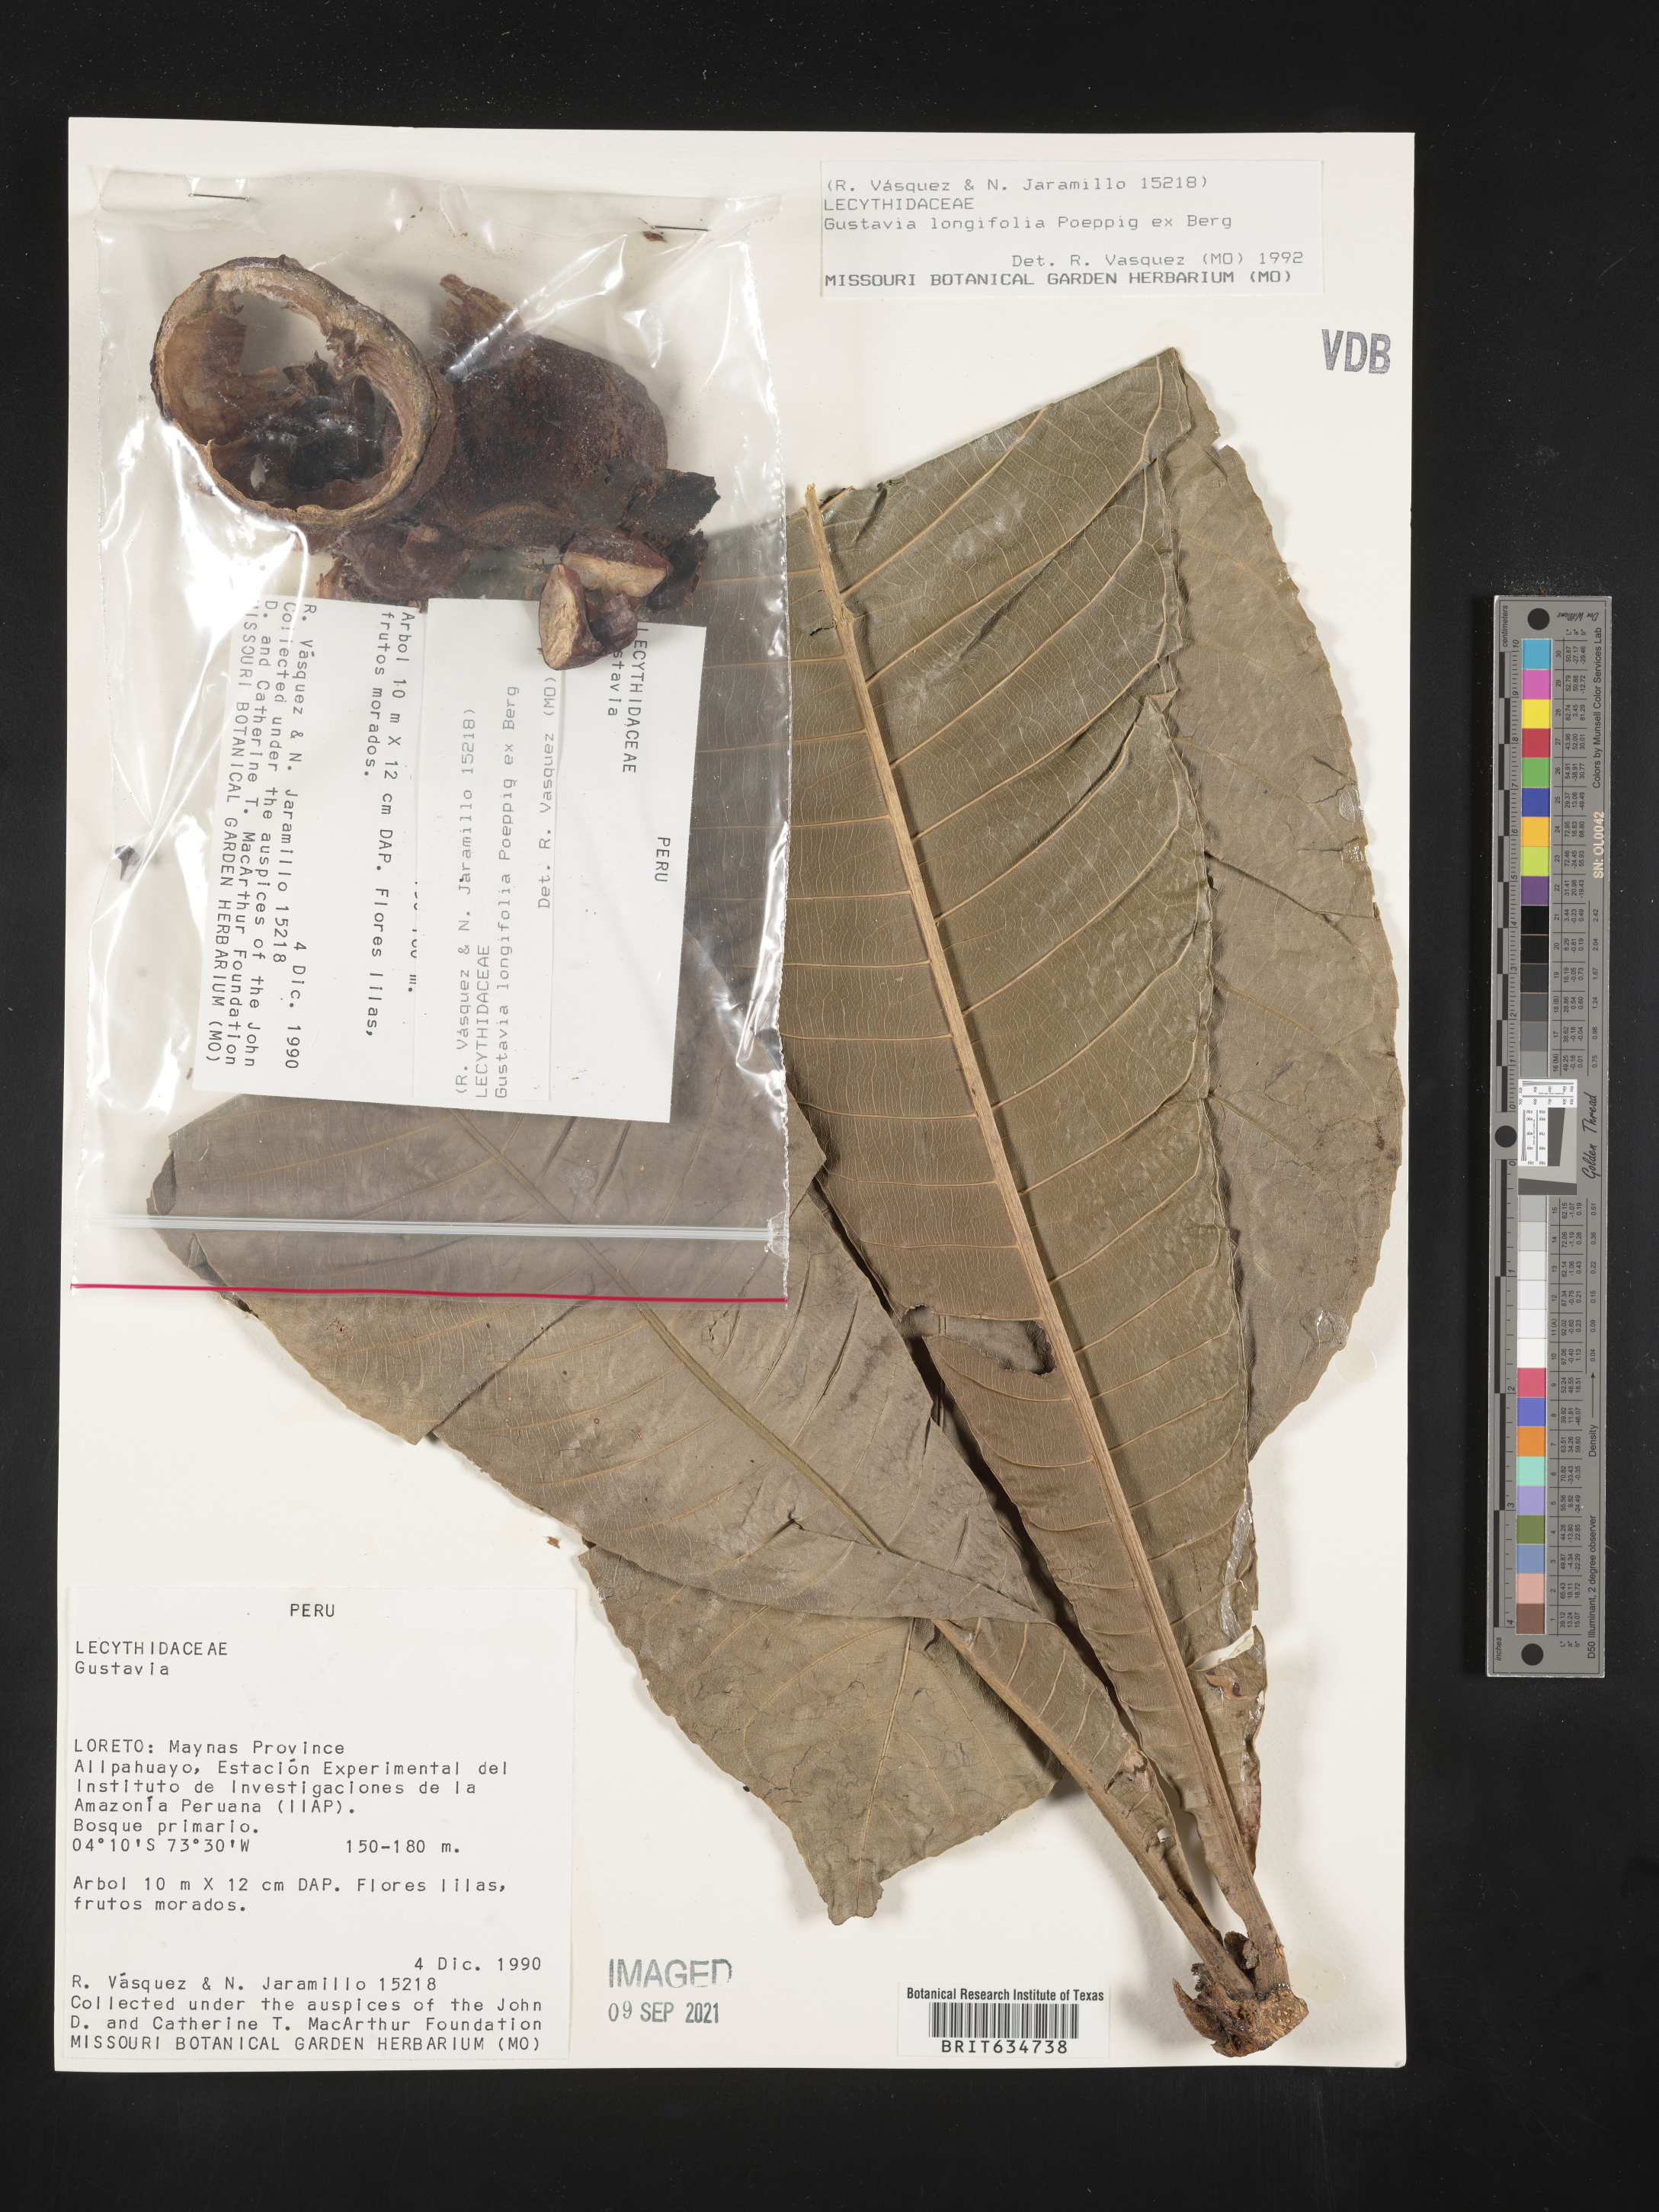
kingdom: Plantae
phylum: Tracheophyta
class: Magnoliopsida
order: Ericales
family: Lecythidaceae
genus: Gustavia
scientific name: Gustavia
